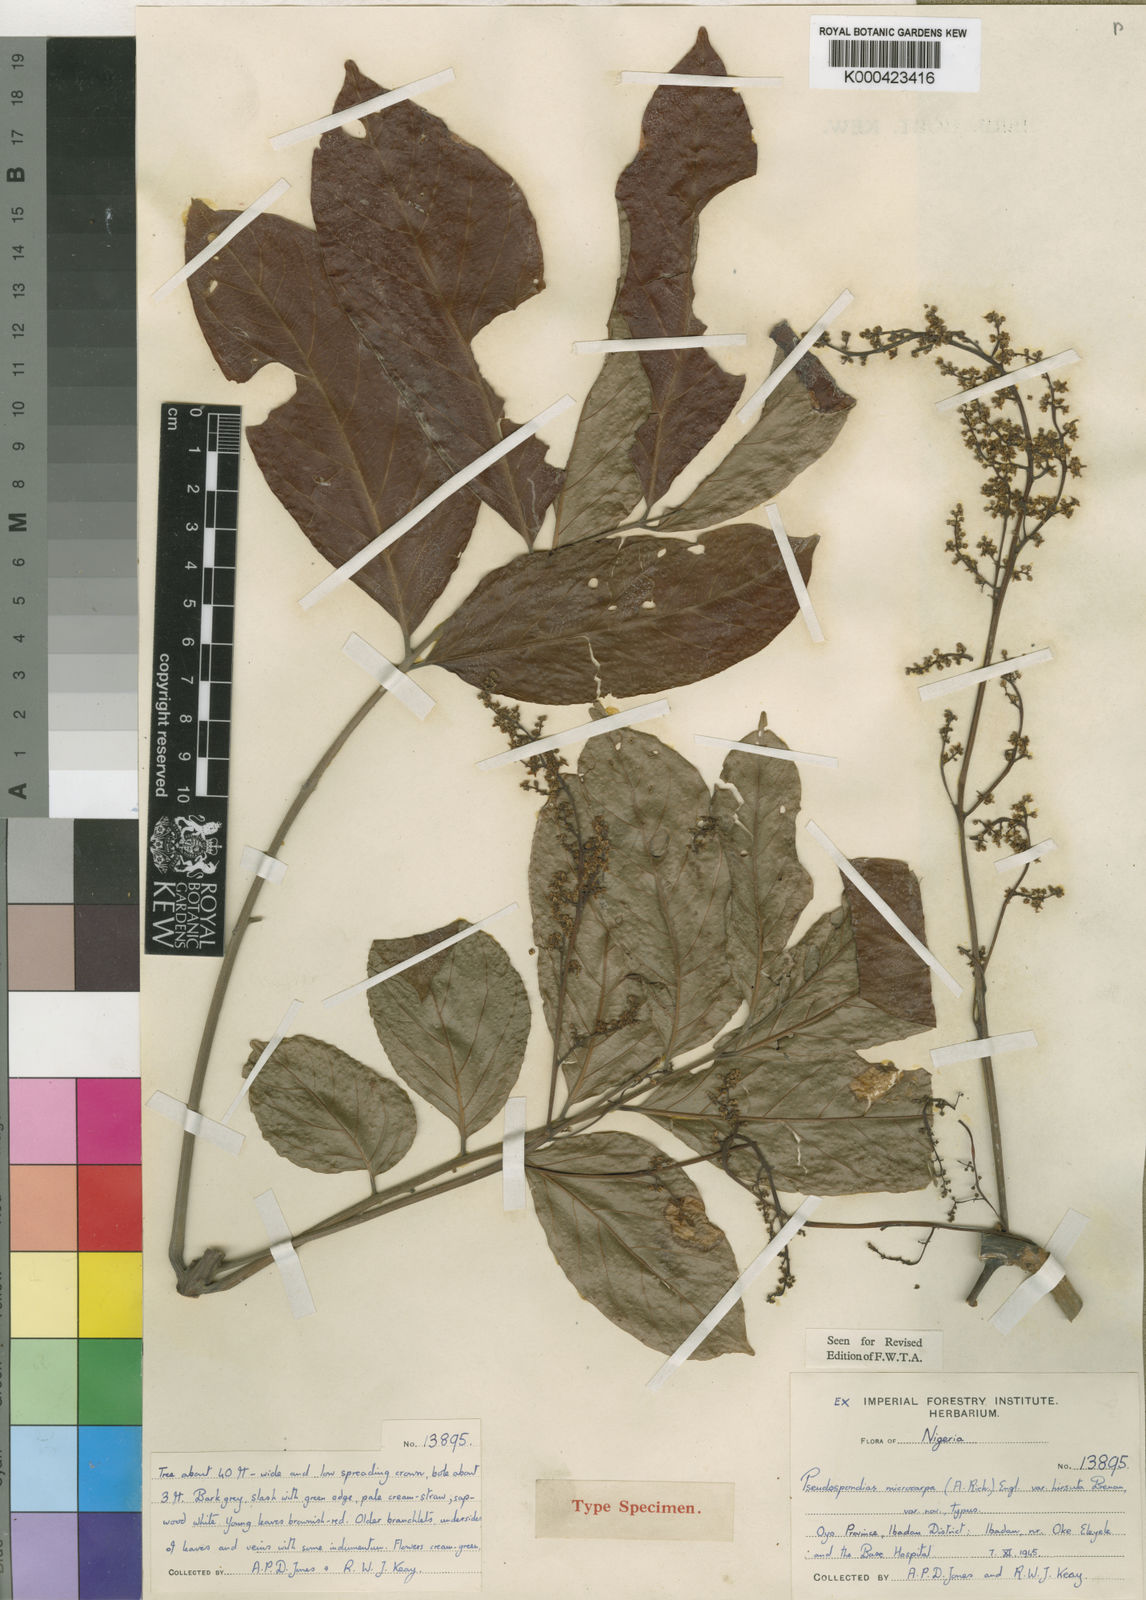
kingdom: Plantae
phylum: Tracheophyta
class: Magnoliopsida
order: Sapindales
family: Anacardiaceae
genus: Pseudospondias
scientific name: Pseudospondias microcarpa
